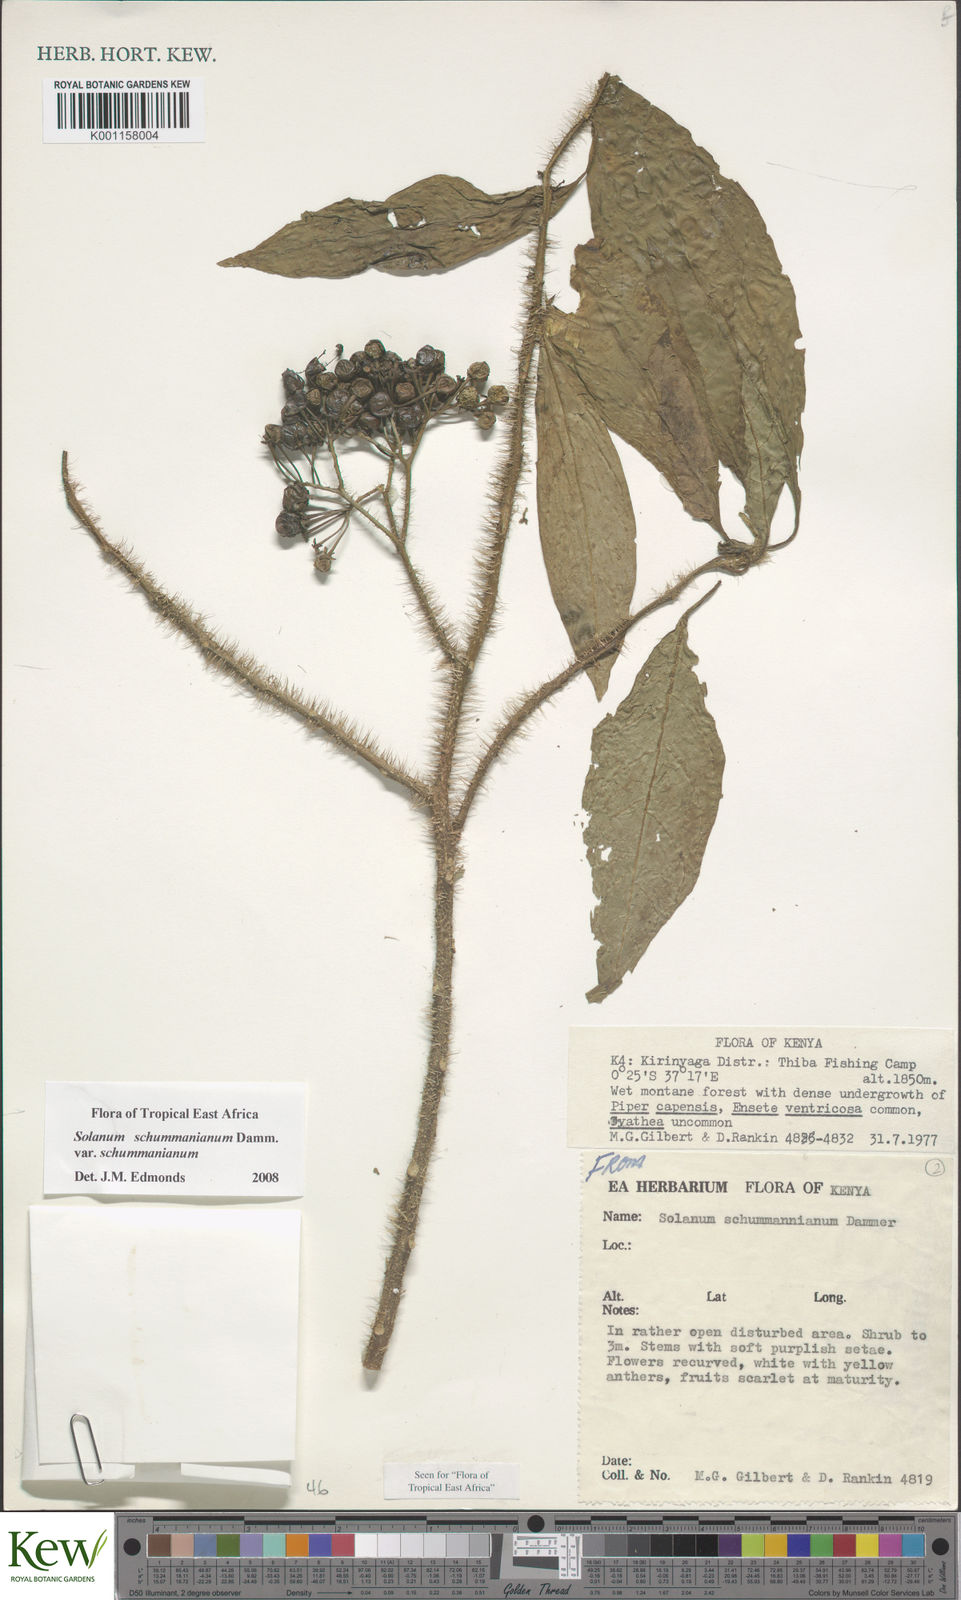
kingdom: Plantae
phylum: Tracheophyta
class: Magnoliopsida
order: Solanales
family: Solanaceae
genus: Solanum
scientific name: Solanum schumannianum
